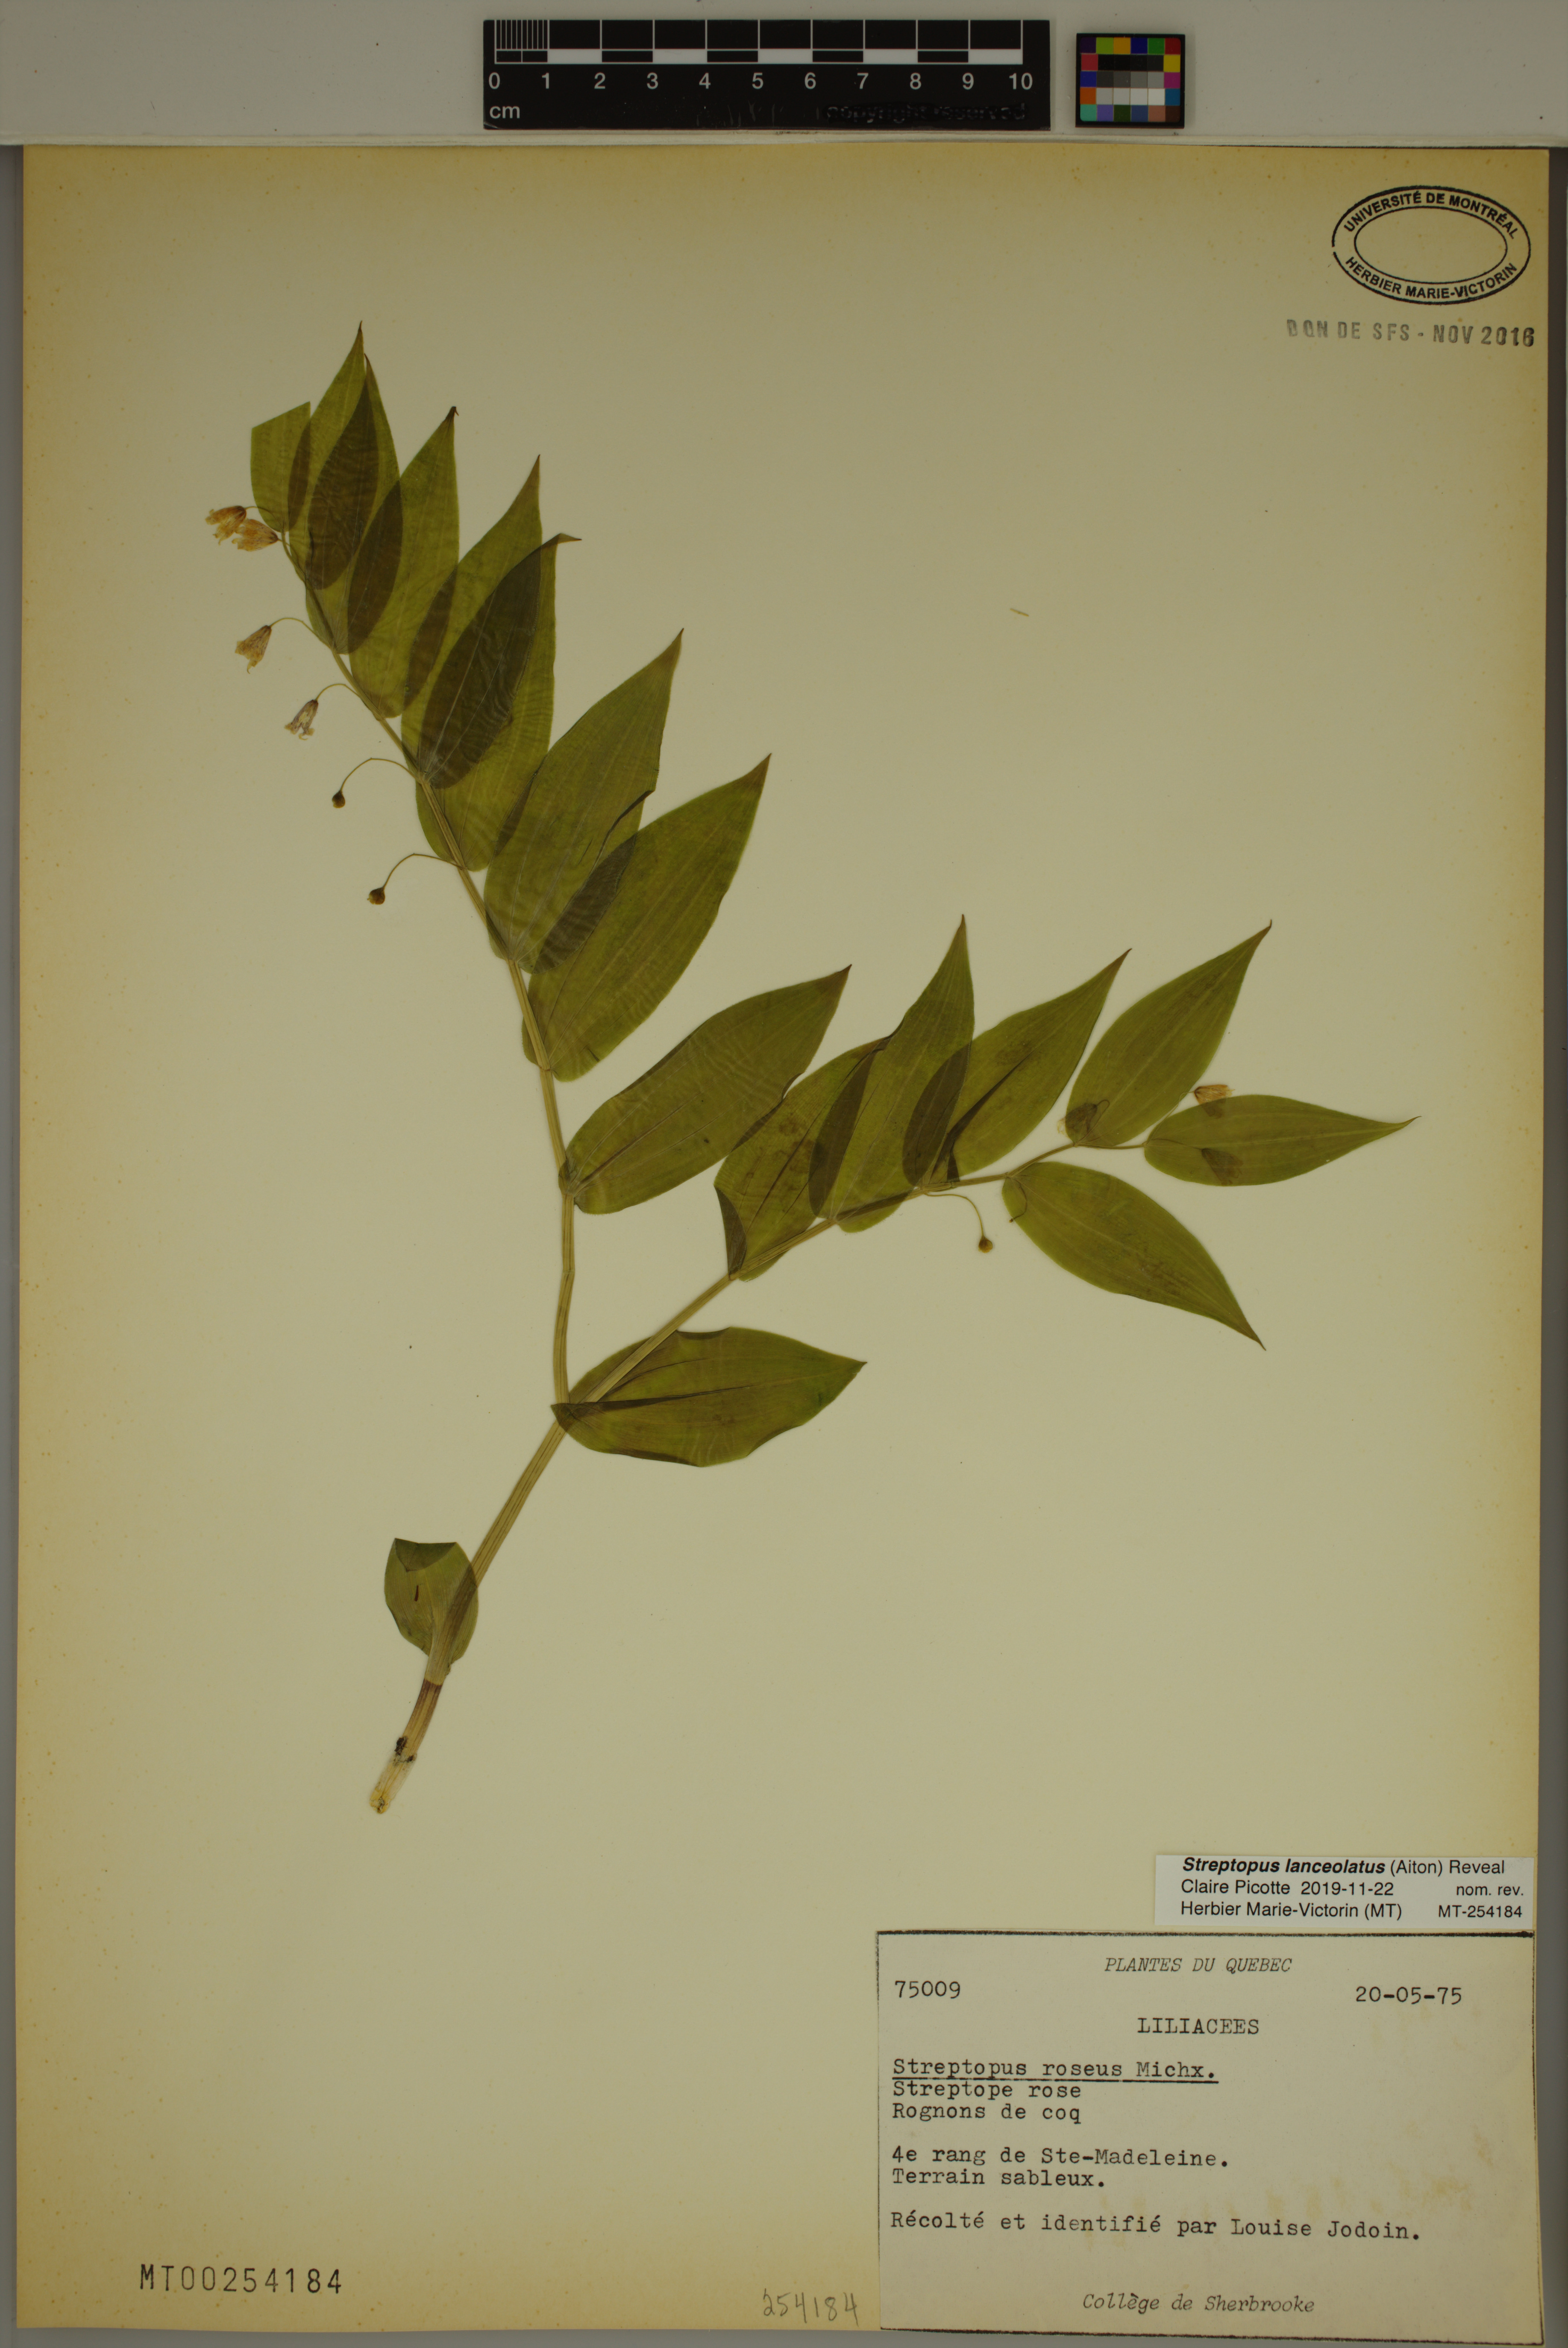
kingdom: Plantae
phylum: Tracheophyta
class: Liliopsida
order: Liliales
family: Liliaceae
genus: Streptopus
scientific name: Streptopus lanceolatus
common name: Rose mandarin
